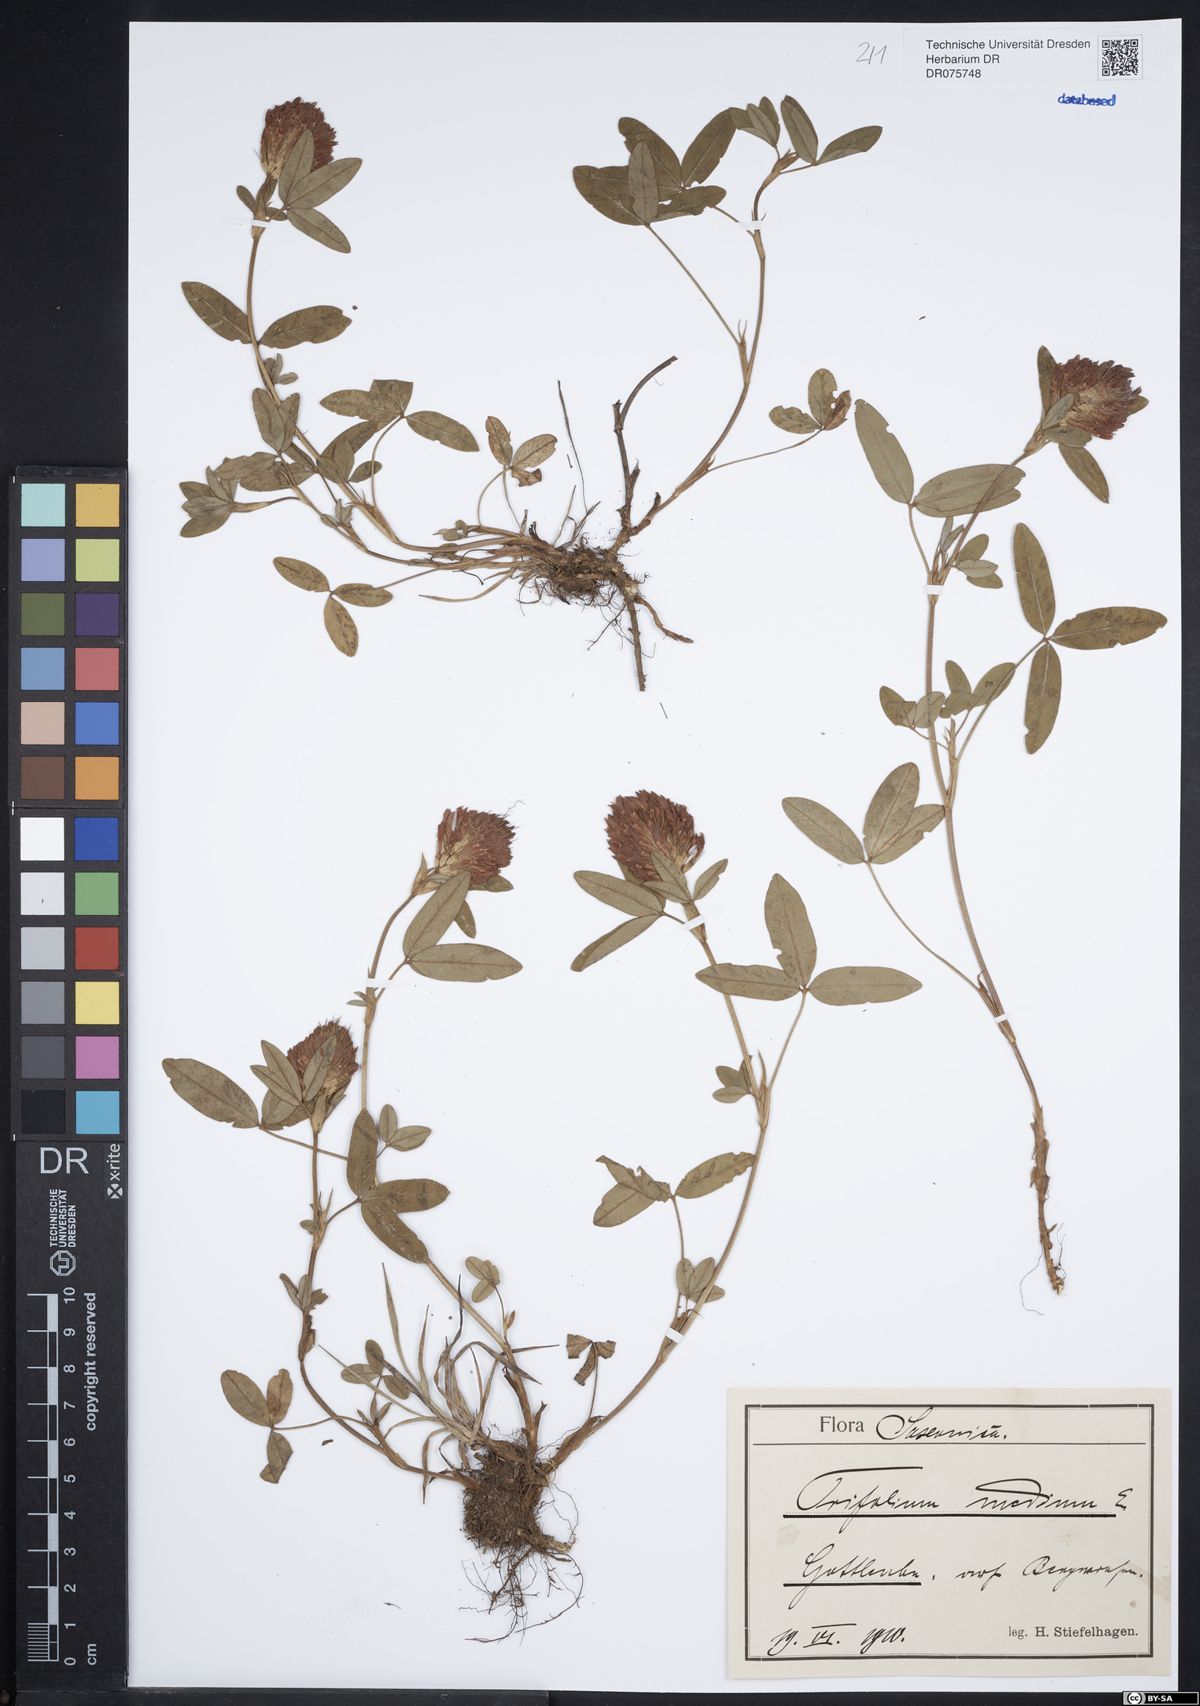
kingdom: Plantae
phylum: Tracheophyta
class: Magnoliopsida
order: Fabales
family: Fabaceae
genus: Trifolium
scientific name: Trifolium medium
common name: Zigzag clover
